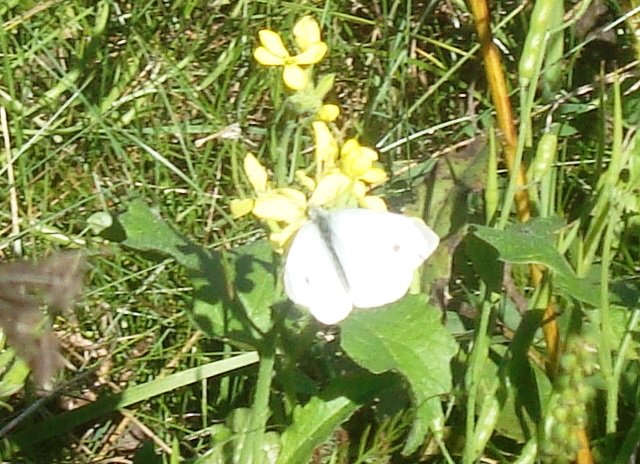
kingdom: Animalia
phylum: Arthropoda
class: Insecta
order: Lepidoptera
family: Pieridae
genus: Pieris
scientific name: Pieris rapae
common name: Cabbage White
